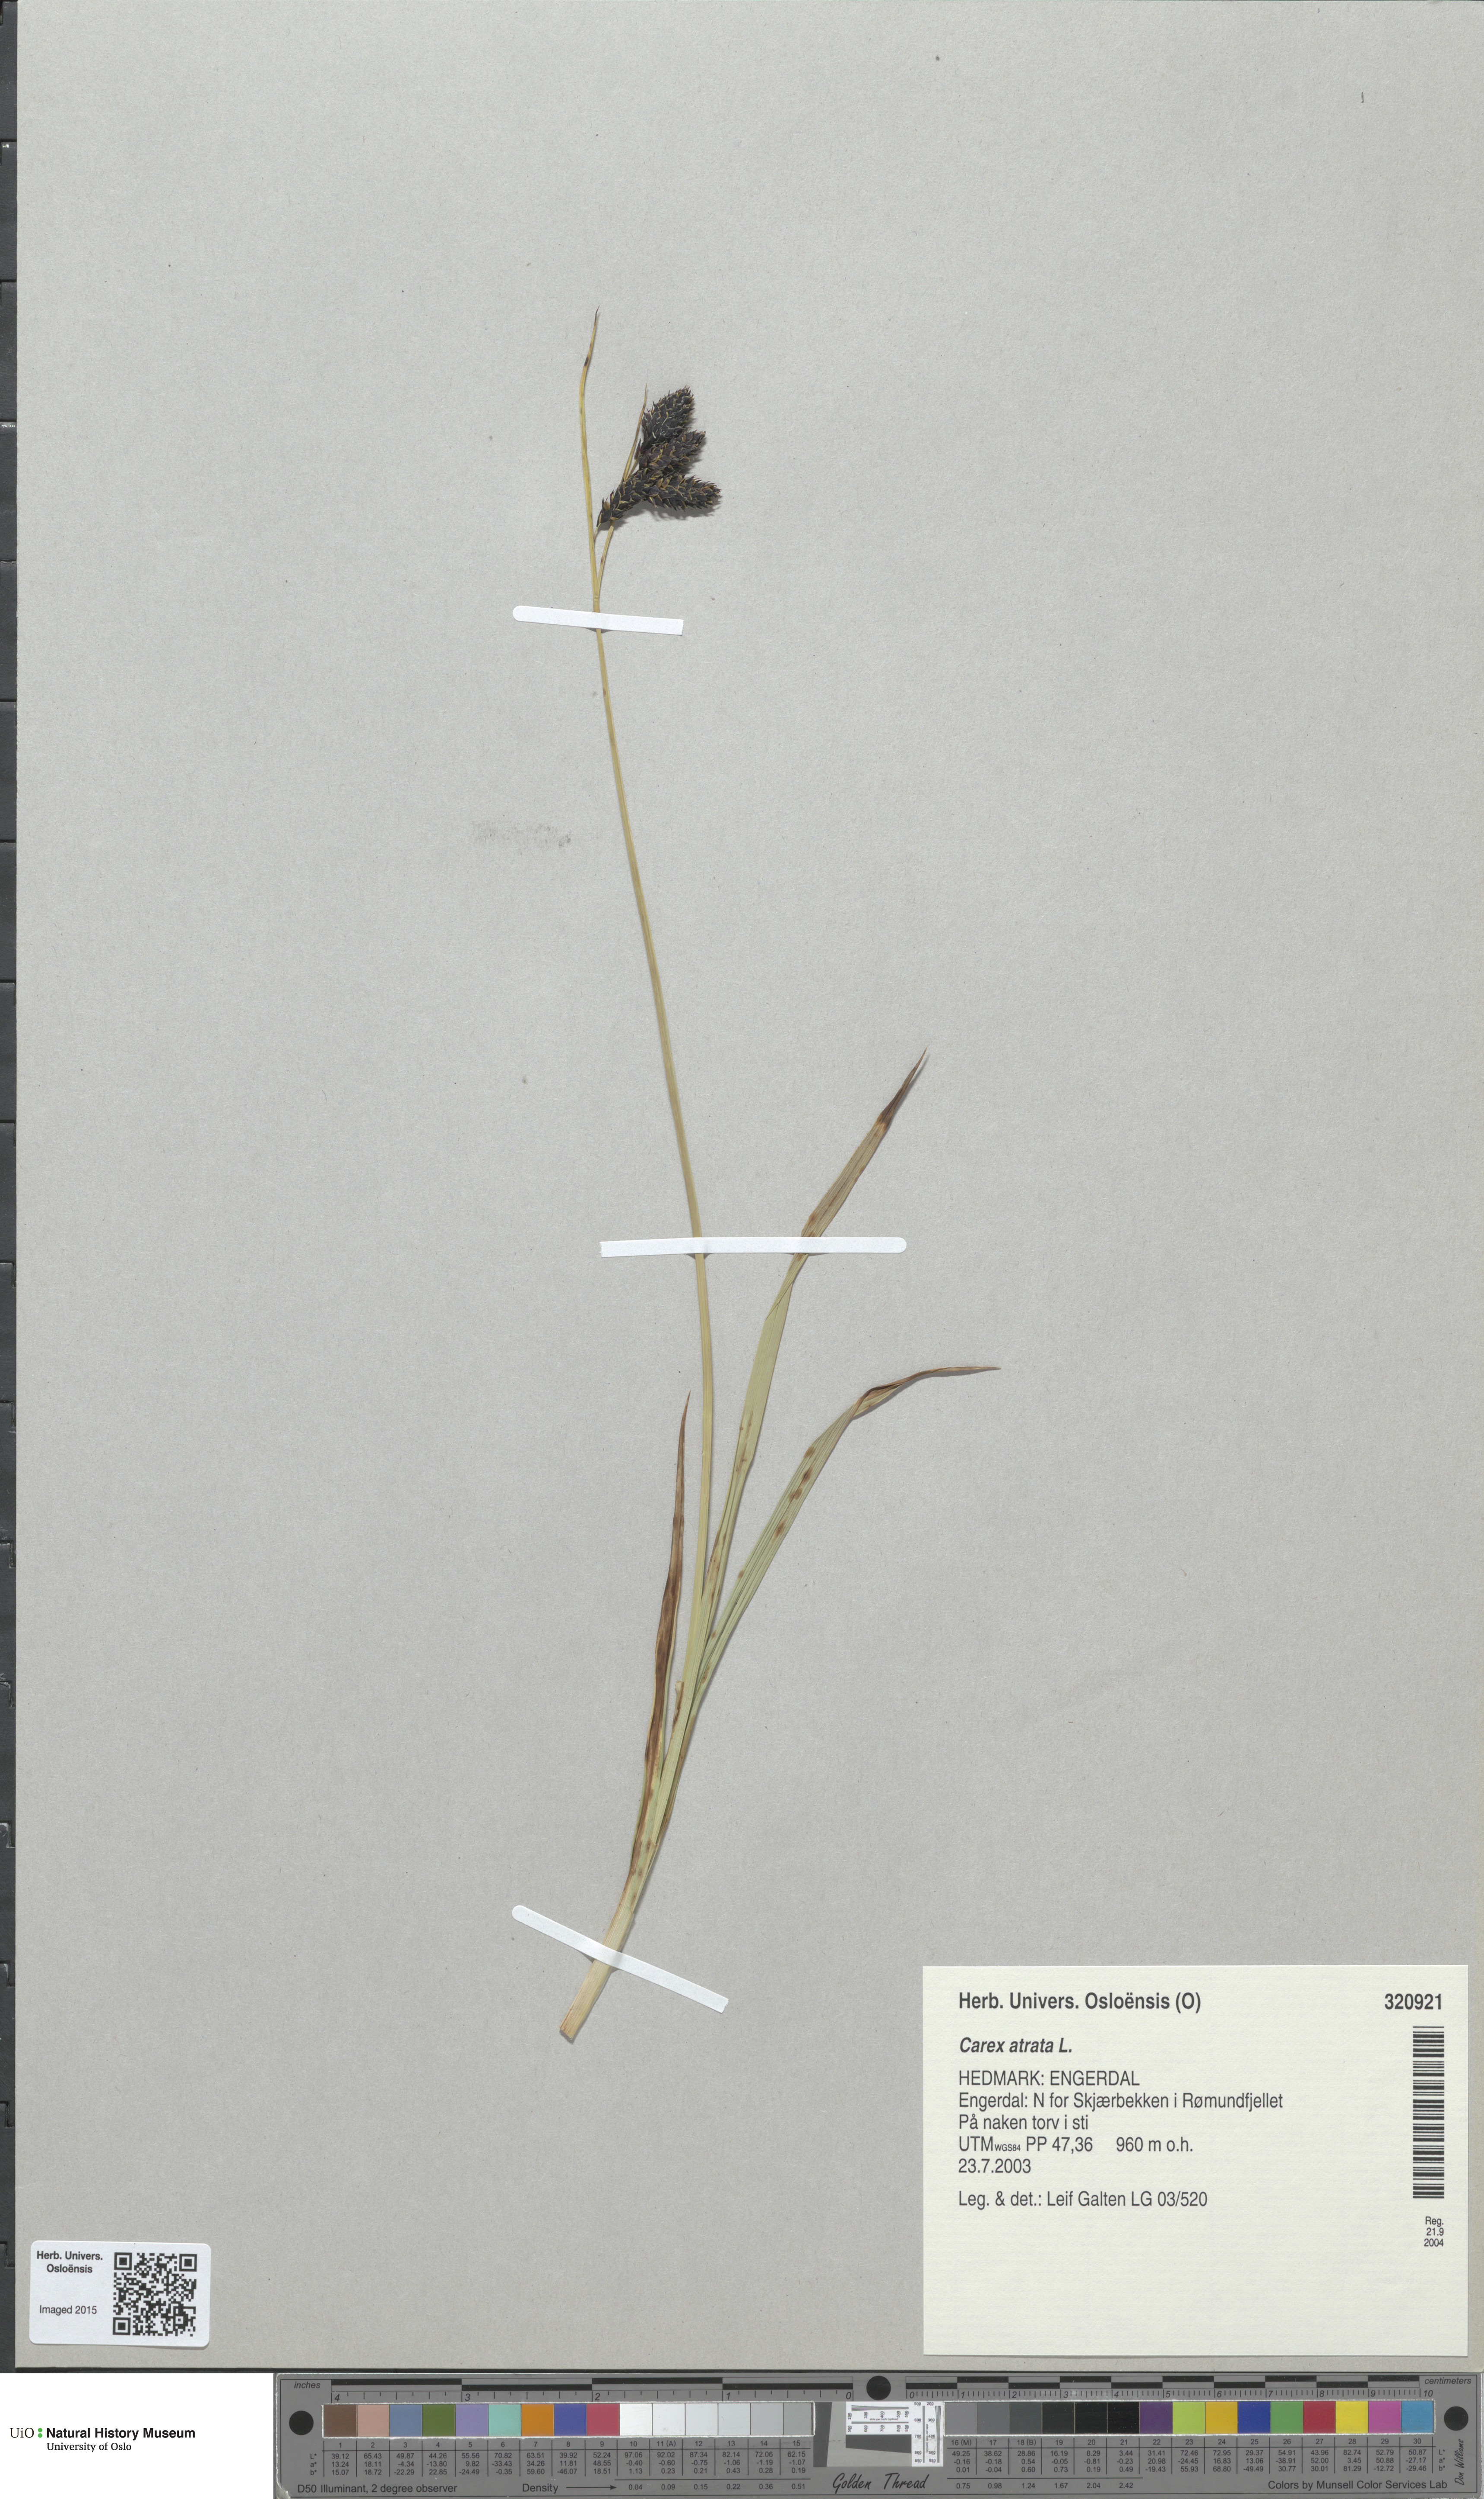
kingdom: Plantae
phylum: Tracheophyta
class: Liliopsida
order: Poales
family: Cyperaceae
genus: Carex
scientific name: Carex atrata
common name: Black alpine sedge
